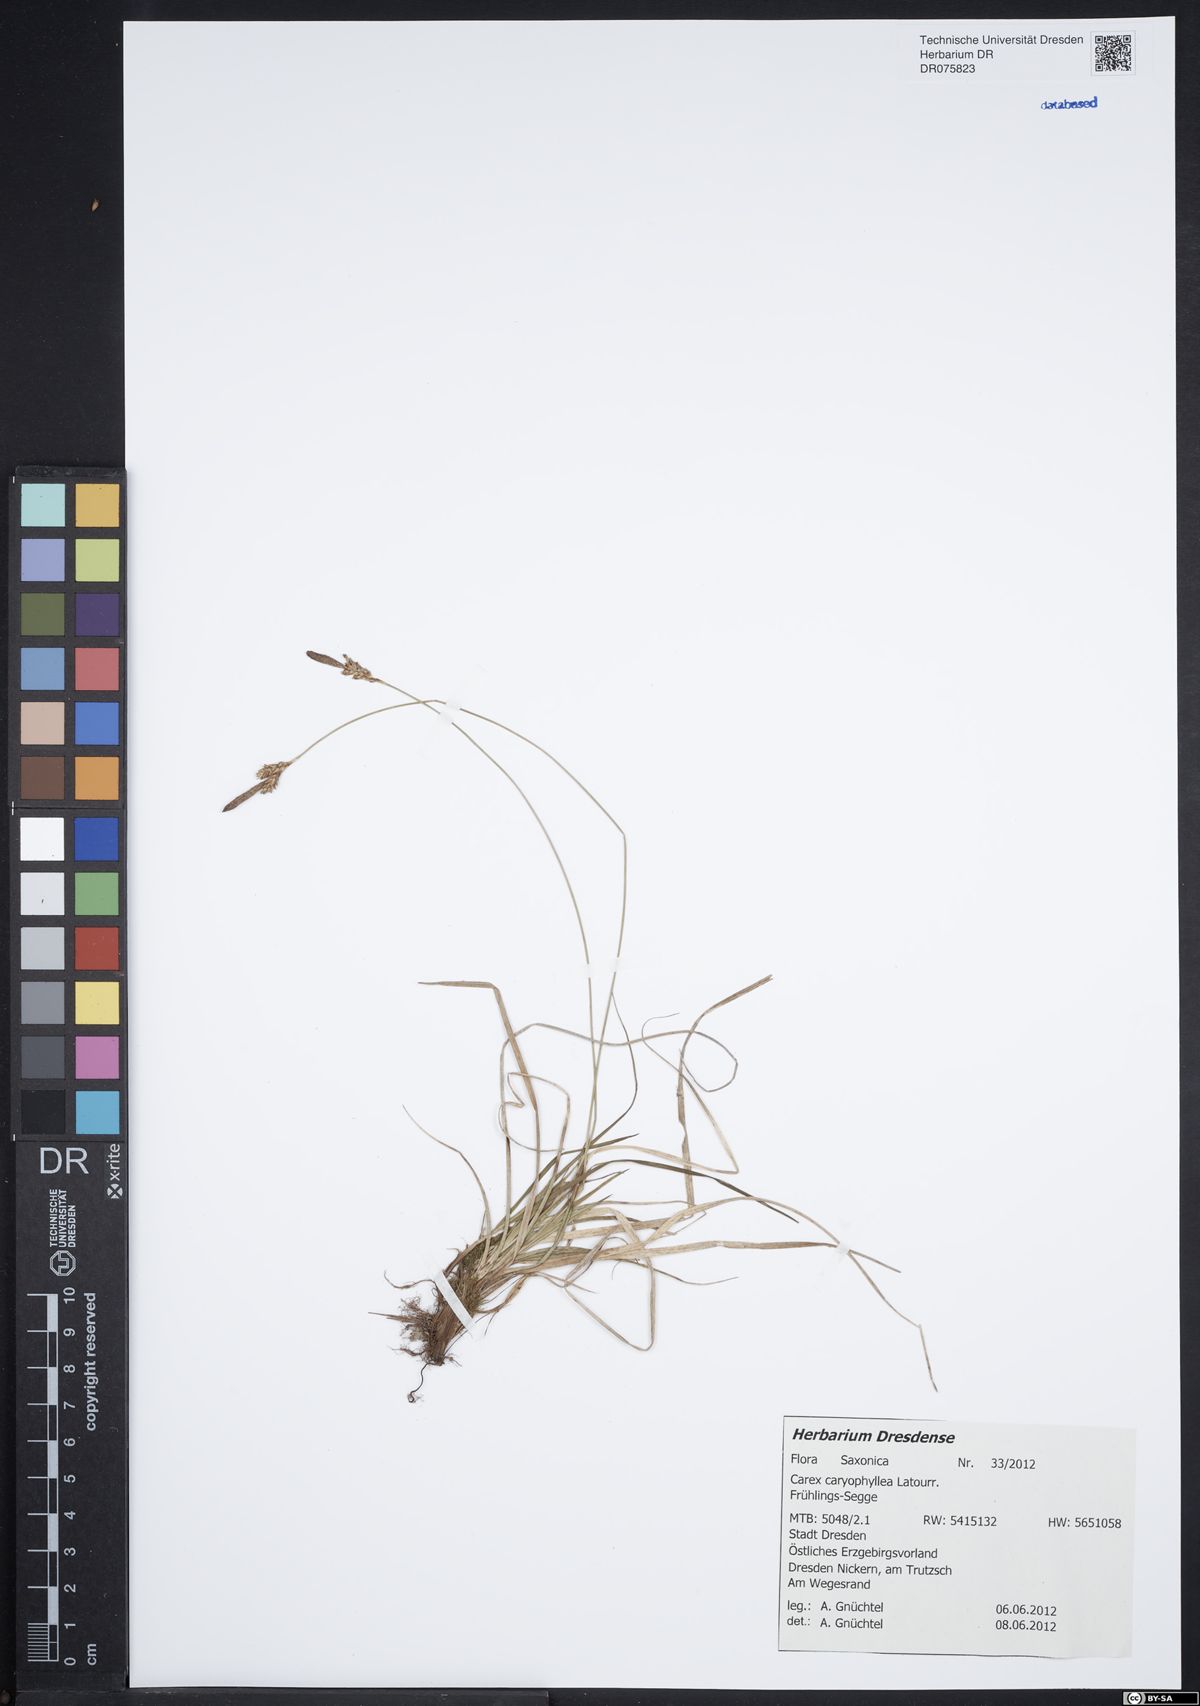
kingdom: Plantae
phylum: Tracheophyta
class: Liliopsida
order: Poales
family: Cyperaceae
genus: Carex
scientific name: Carex caryophyllea
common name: Spring sedge
